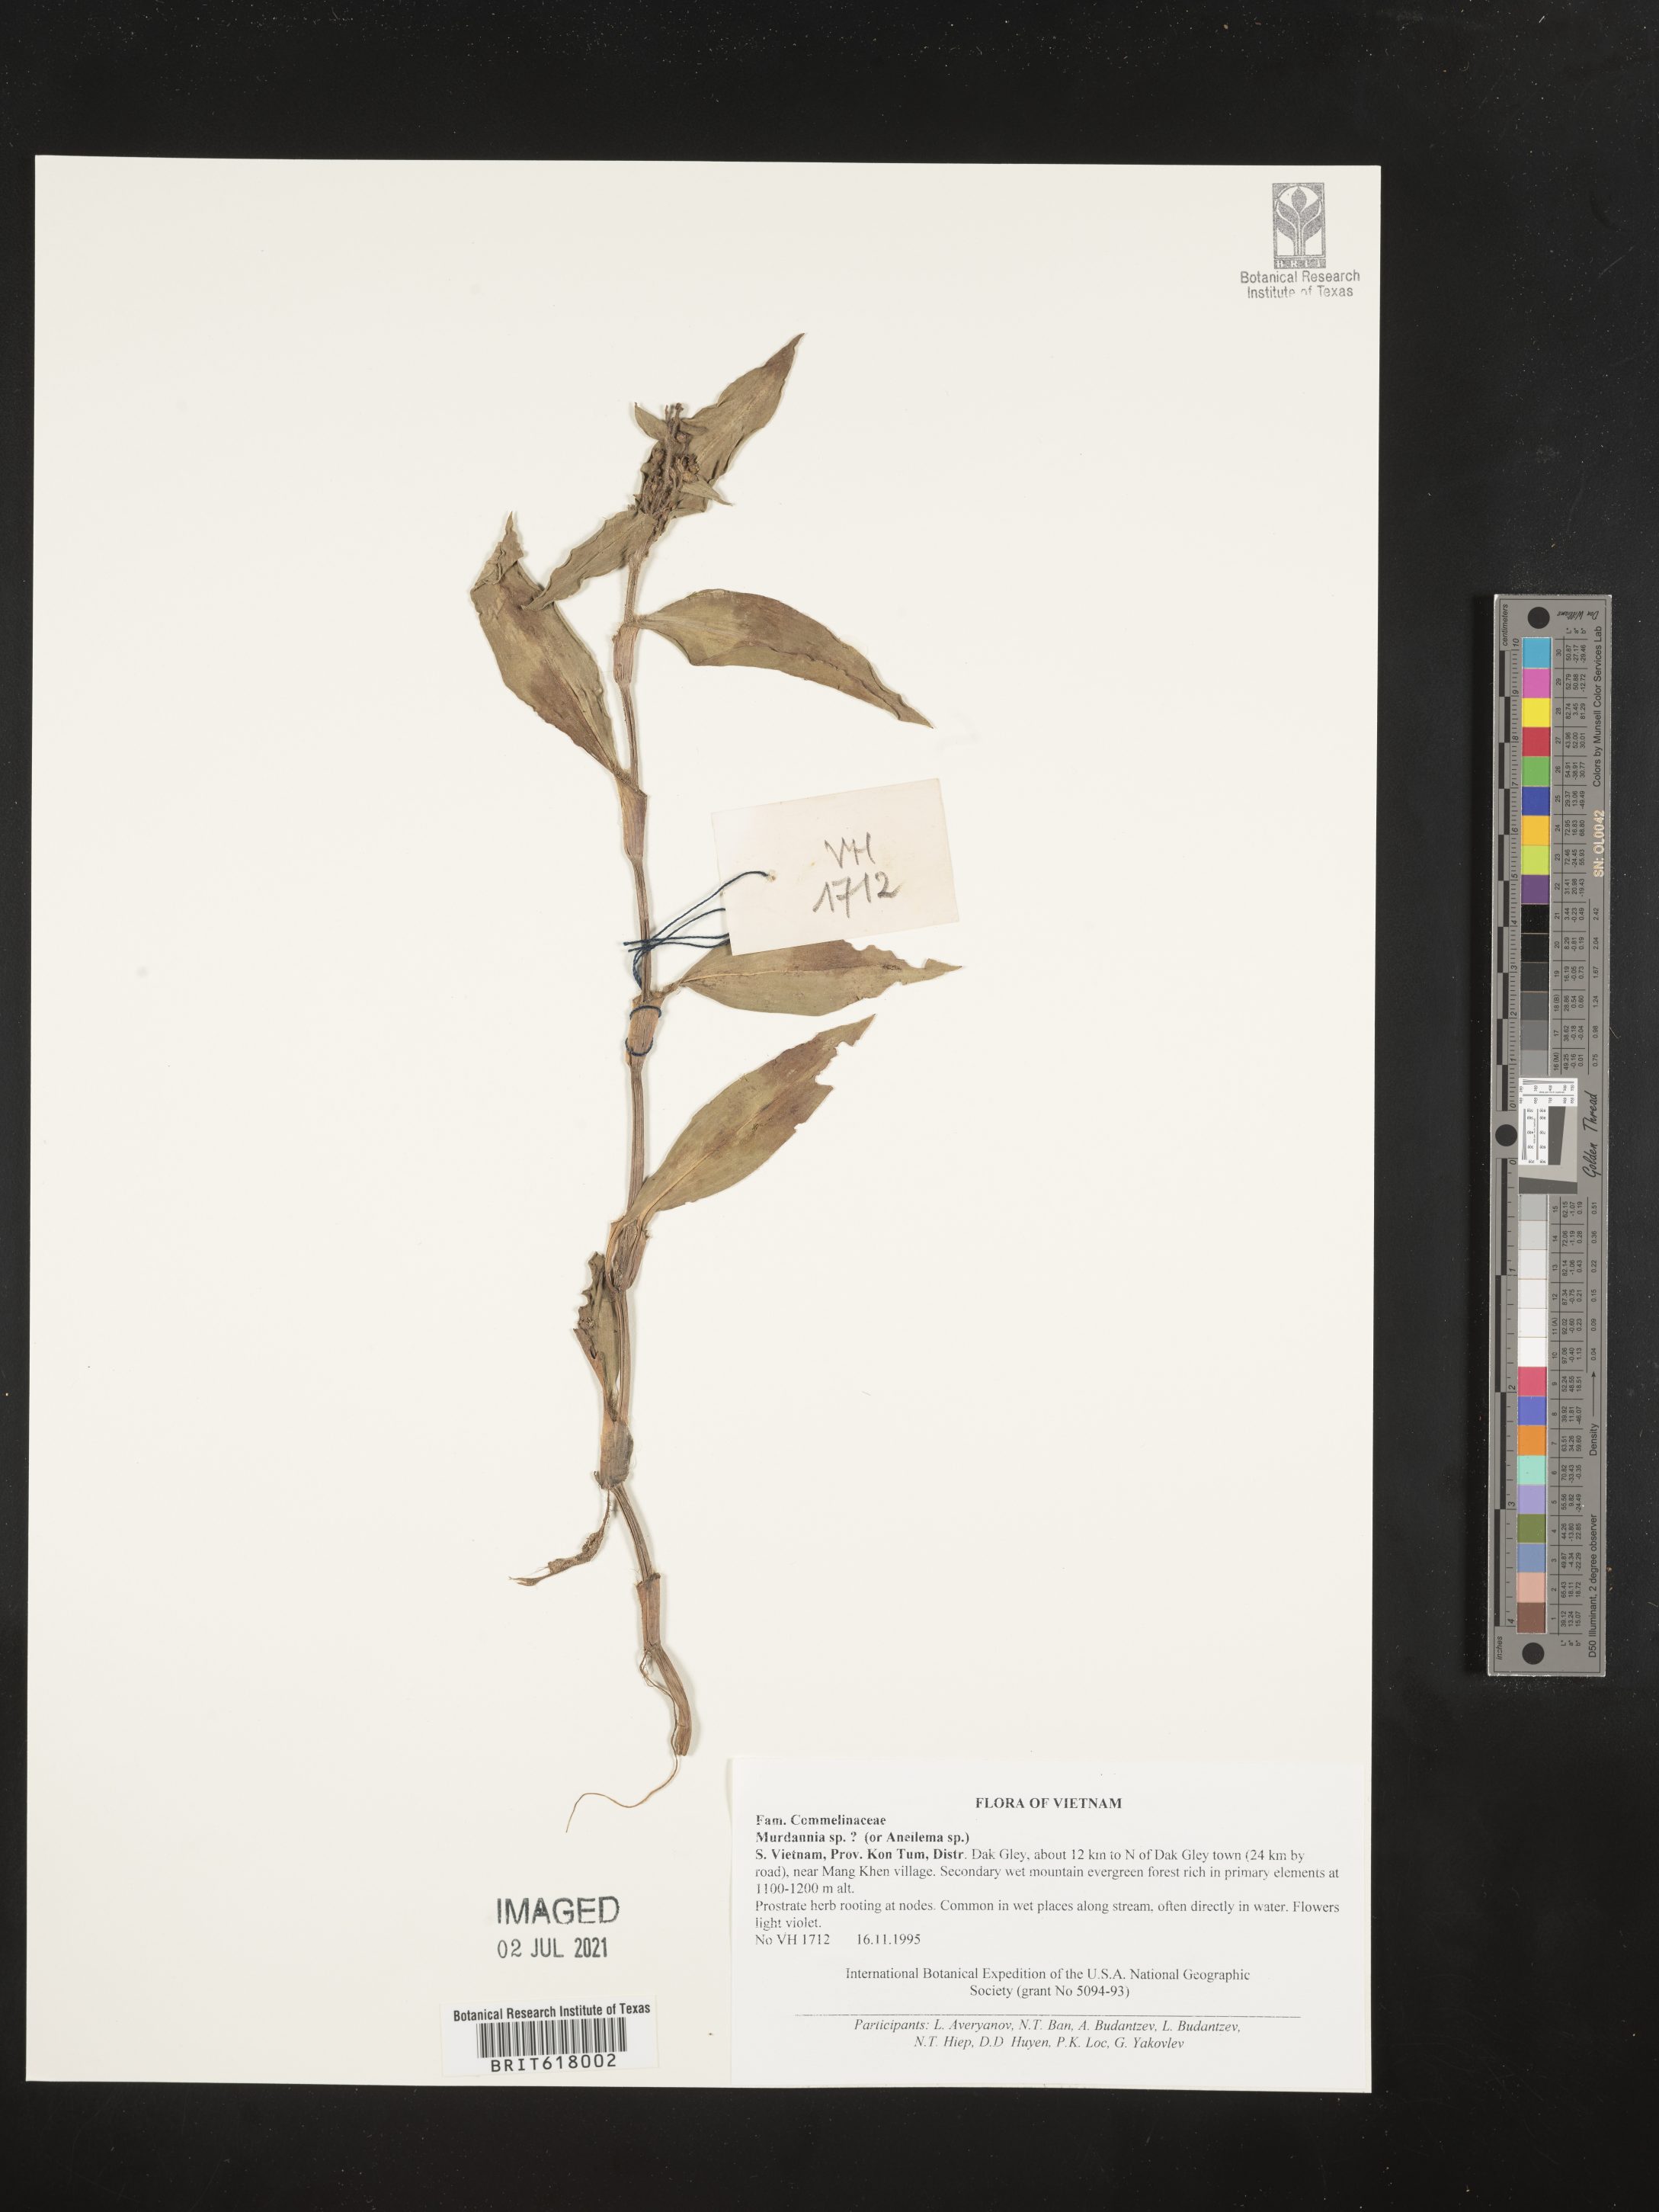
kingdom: Plantae
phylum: Tracheophyta
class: Liliopsida
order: Commelinales
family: Commelinaceae
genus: Murdannia
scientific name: Murdannia
